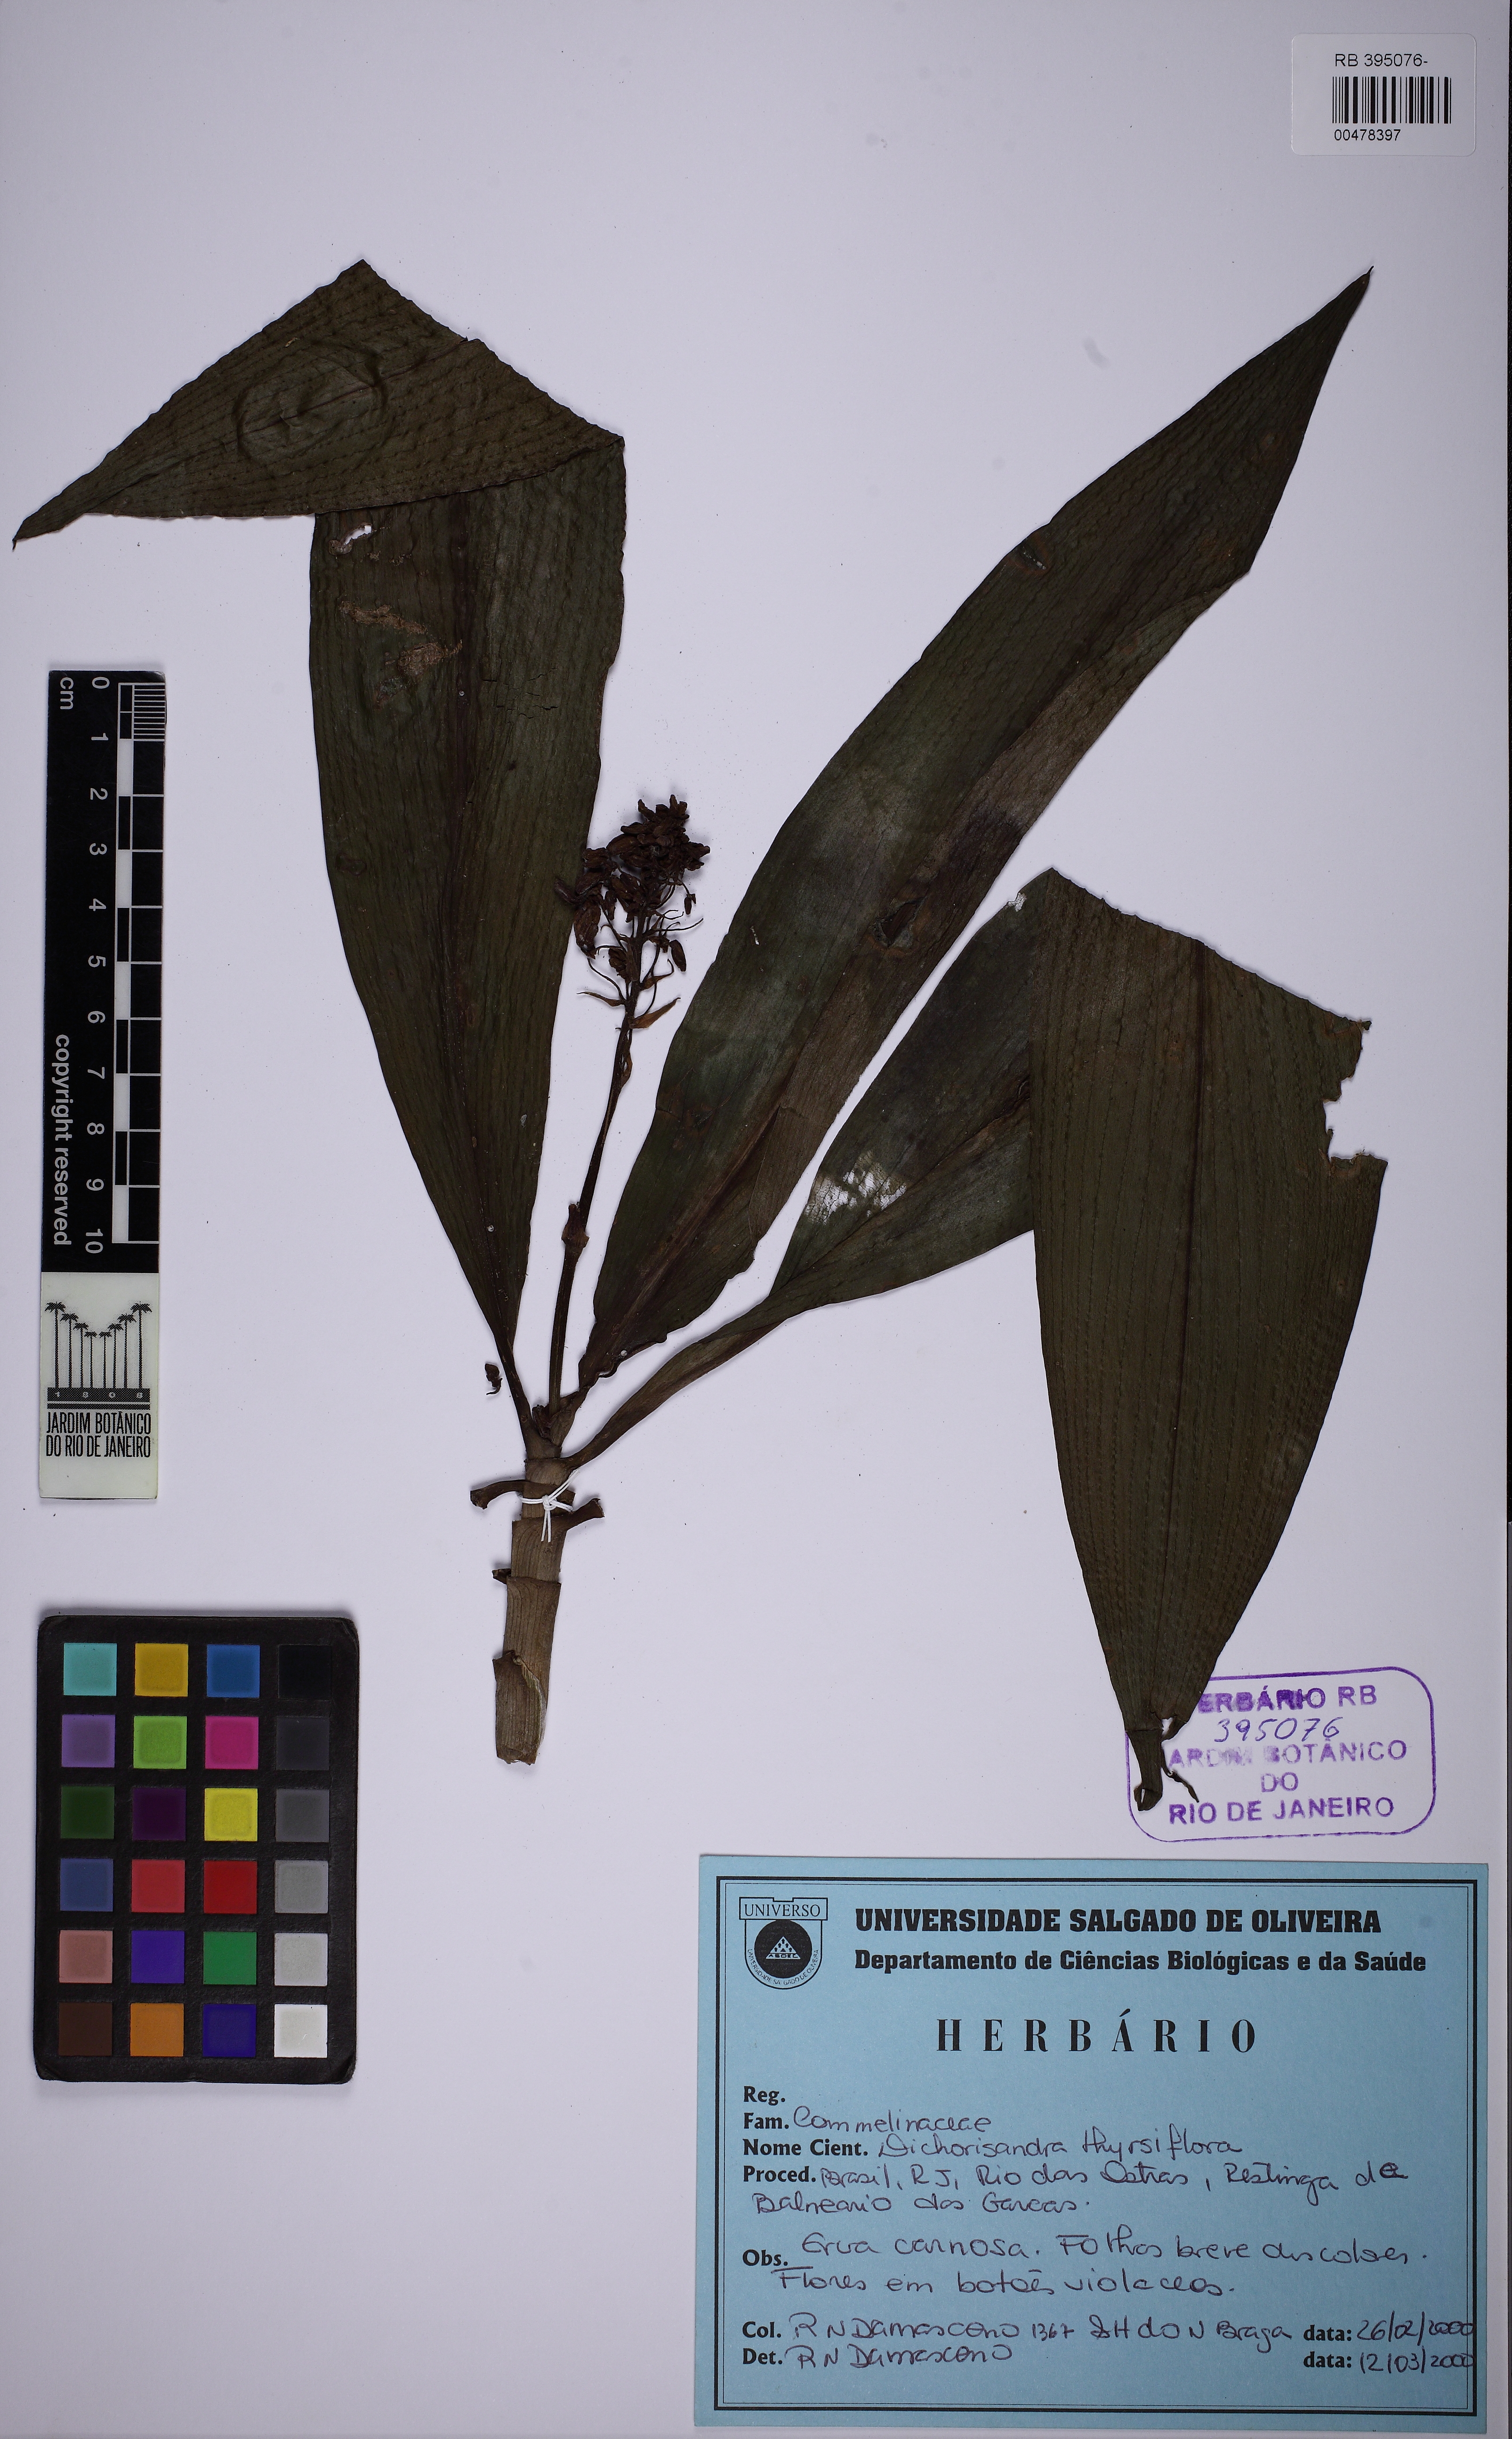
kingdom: Plantae
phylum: Tracheophyta
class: Liliopsida
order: Commelinales
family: Commelinaceae
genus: Dichorisandra
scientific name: Dichorisandra thyrsiflora
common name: Blue-ginger
